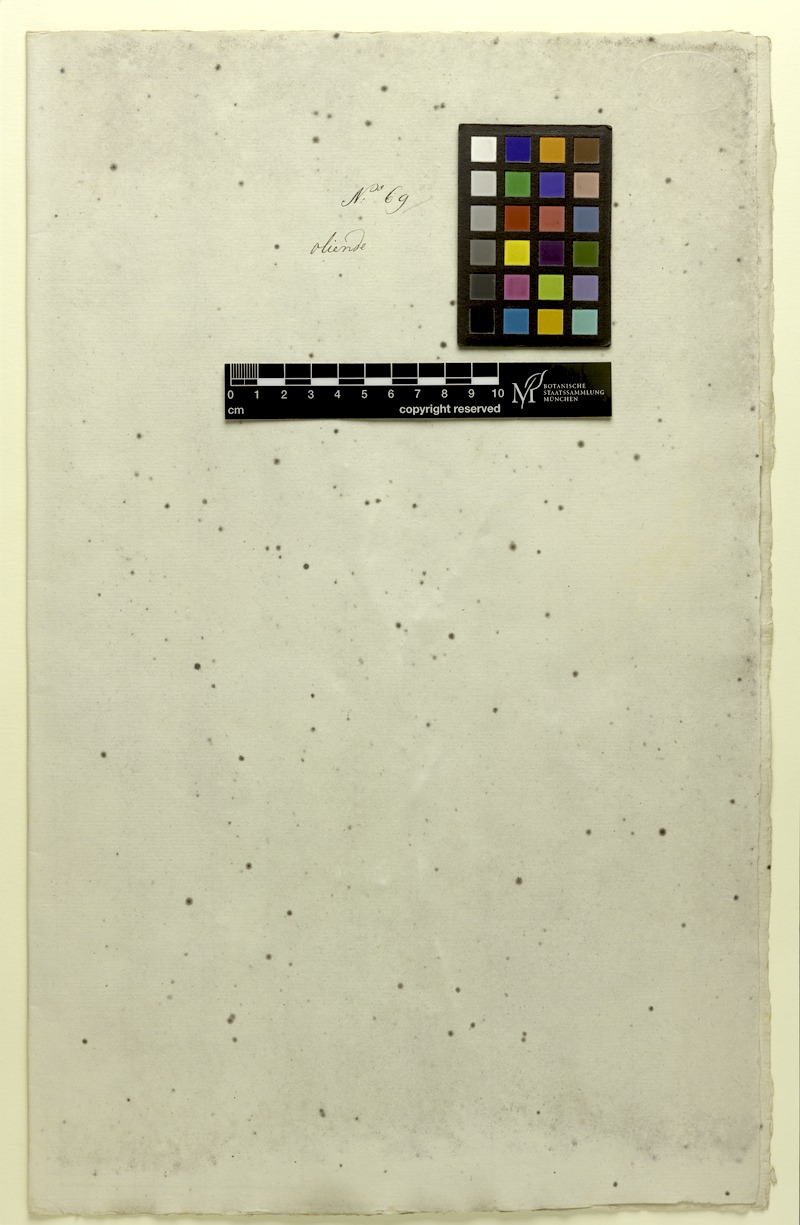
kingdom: Plantae
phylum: Tracheophyta
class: Magnoliopsida
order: Fabales
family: Fabaceae
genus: Abrus
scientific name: Abrus precatorius
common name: Rosarypea
